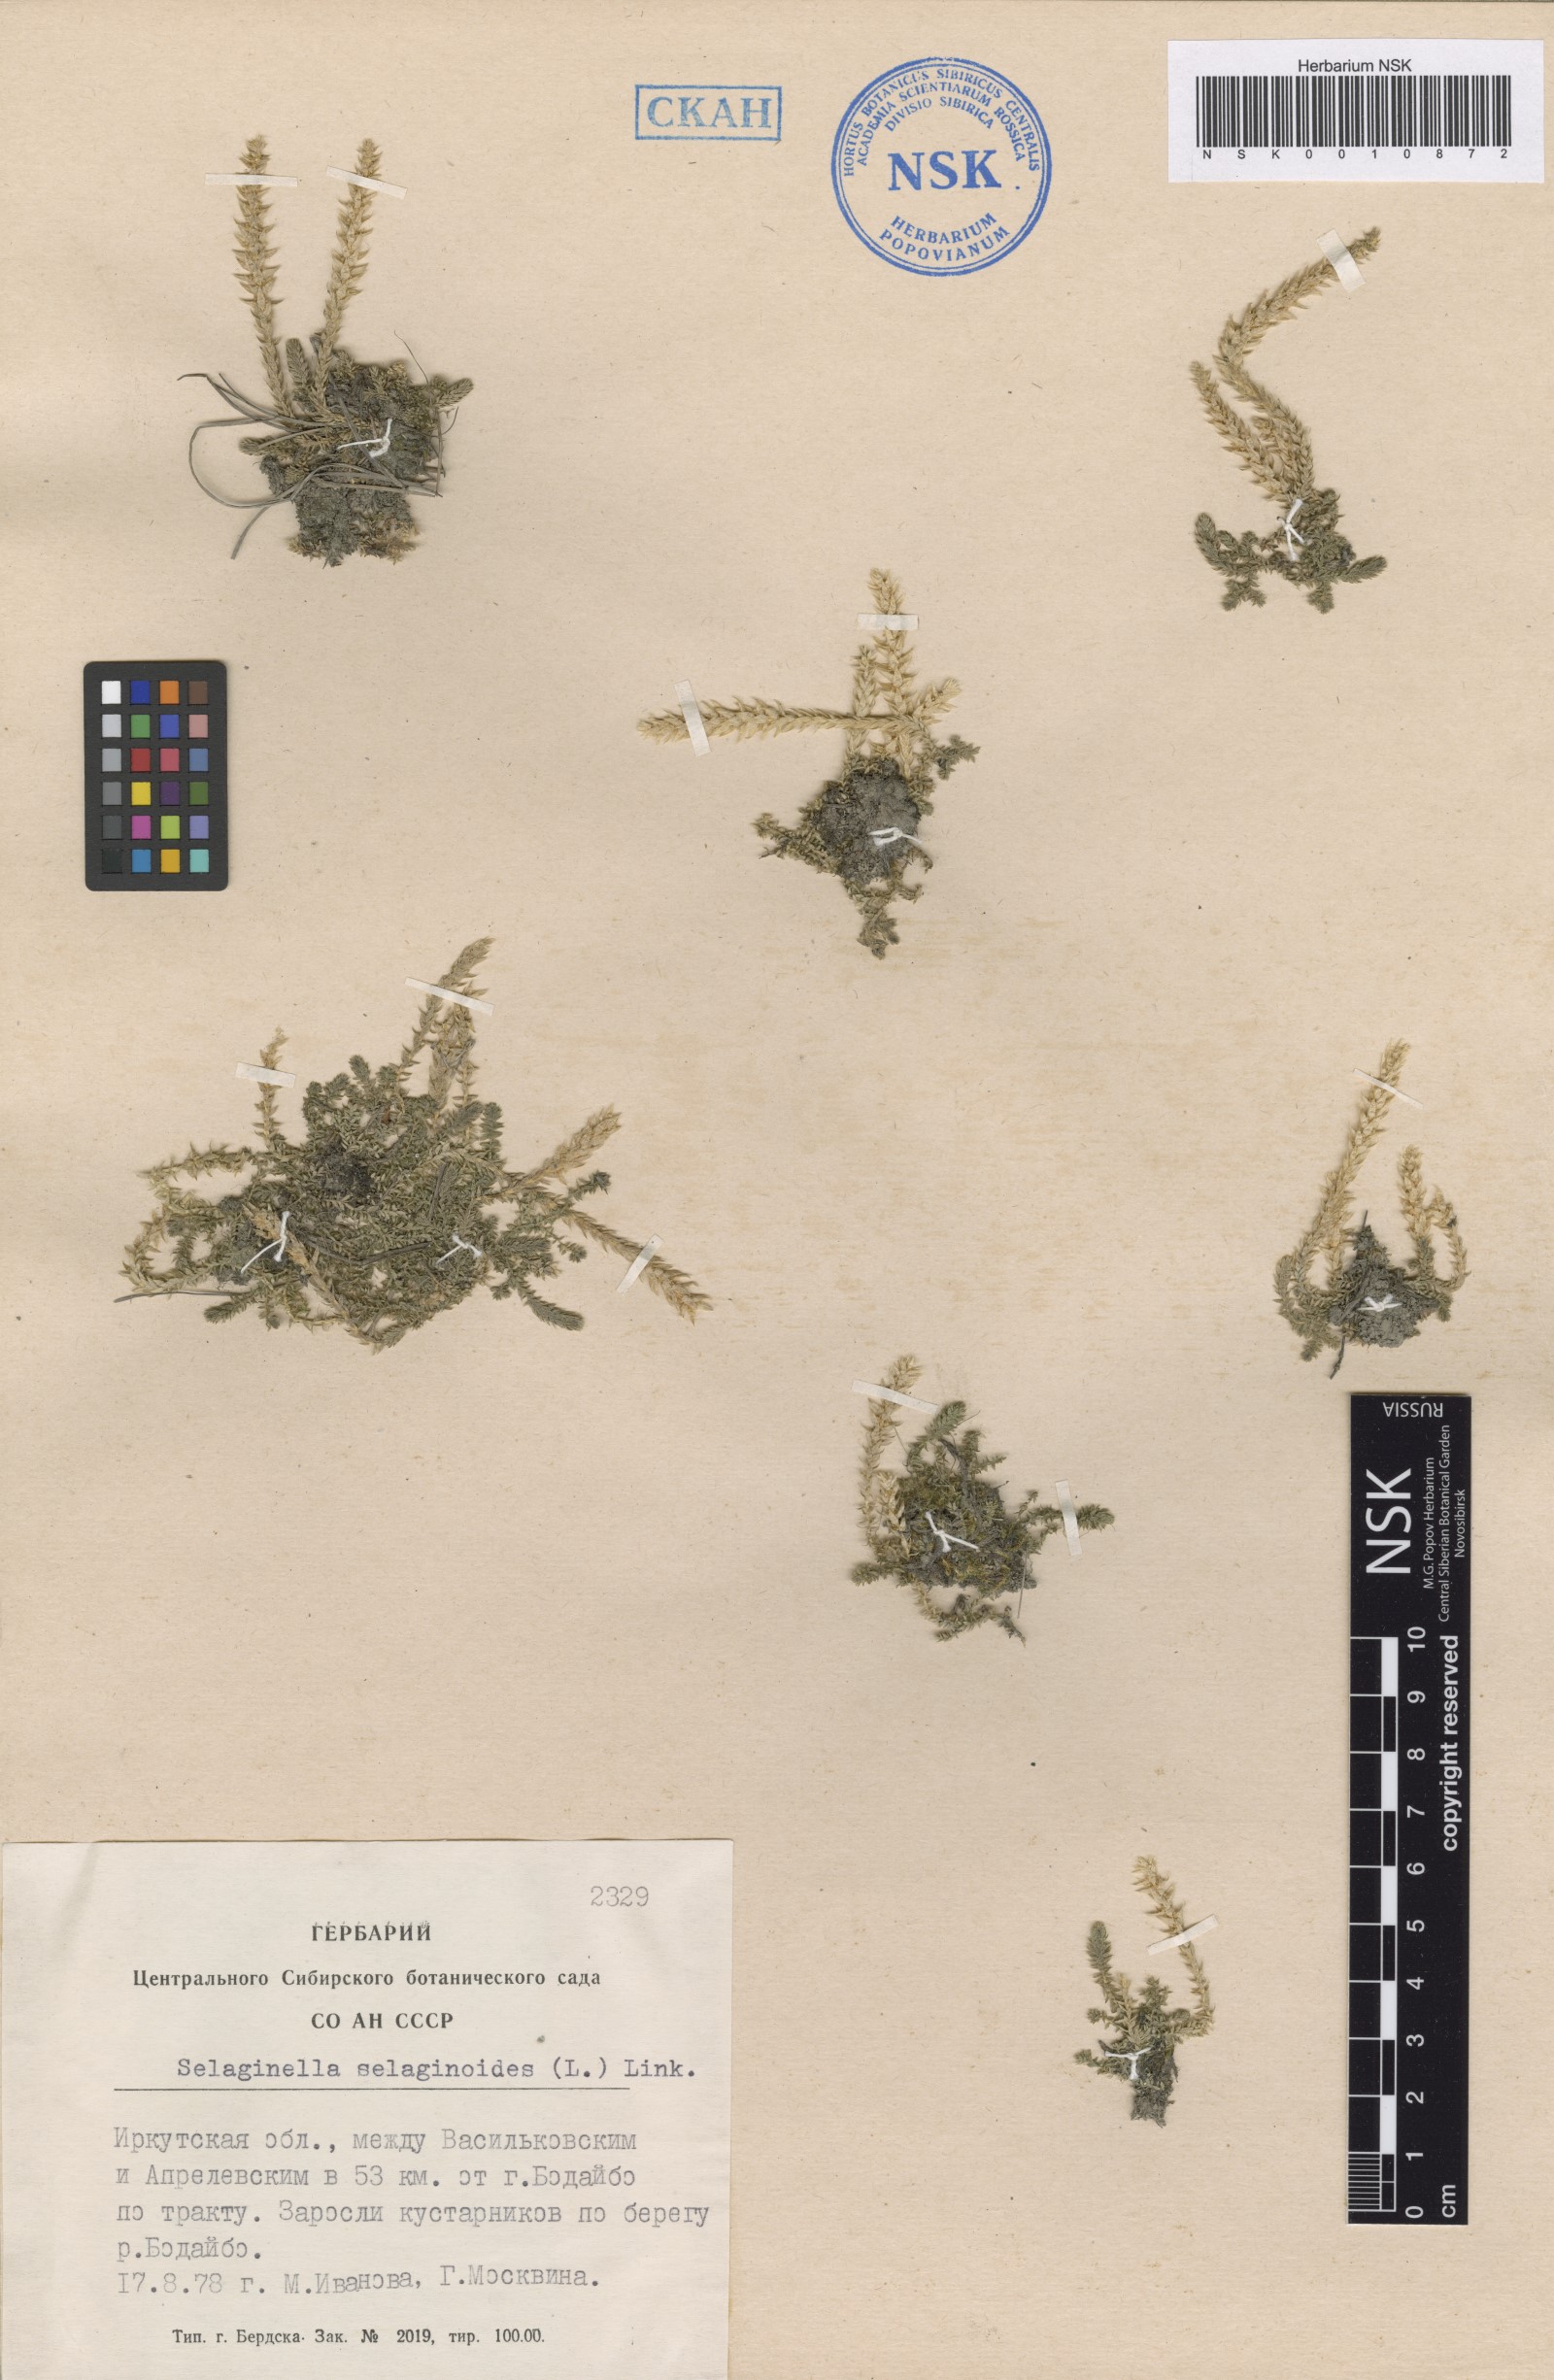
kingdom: Plantae
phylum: Tracheophyta
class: Lycopodiopsida
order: Selaginellales
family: Selaginellaceae
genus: Selaginella
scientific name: Selaginella selaginoides
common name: Prickly mountain-moss
